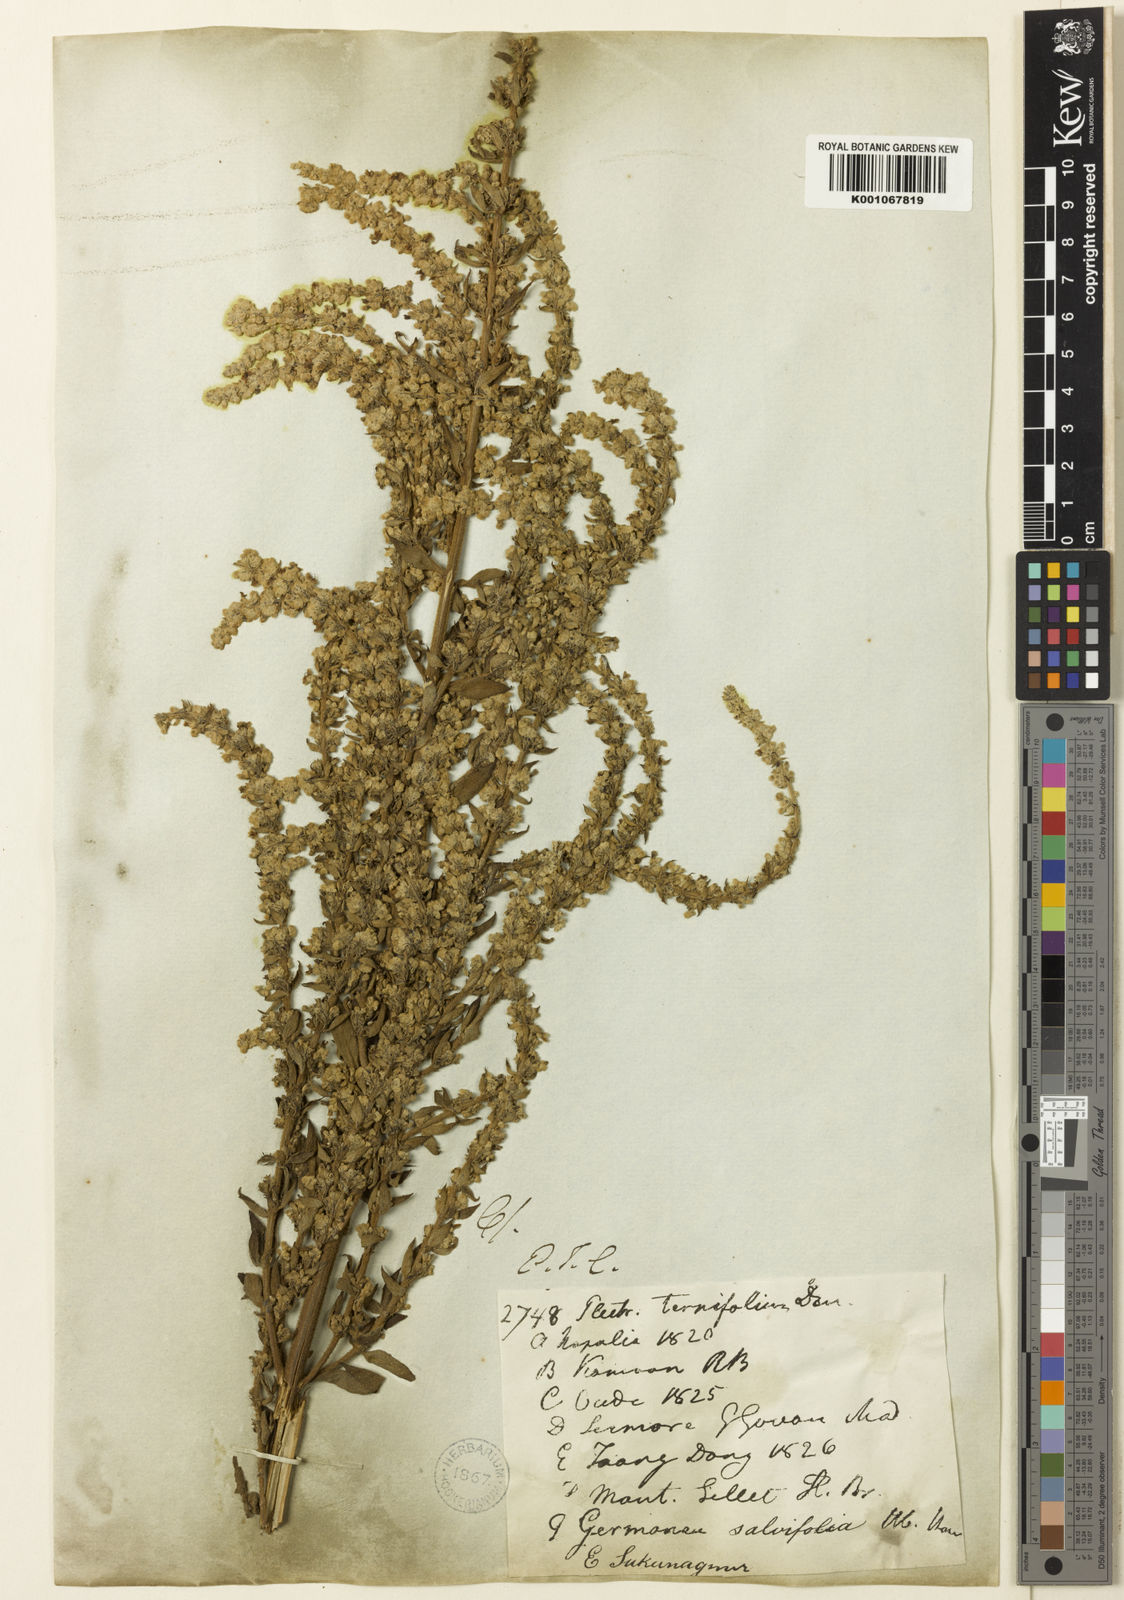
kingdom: Plantae
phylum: Tracheophyta
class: Magnoliopsida
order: Lamiales
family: Lamiaceae
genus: Isodon
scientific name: Isodon
